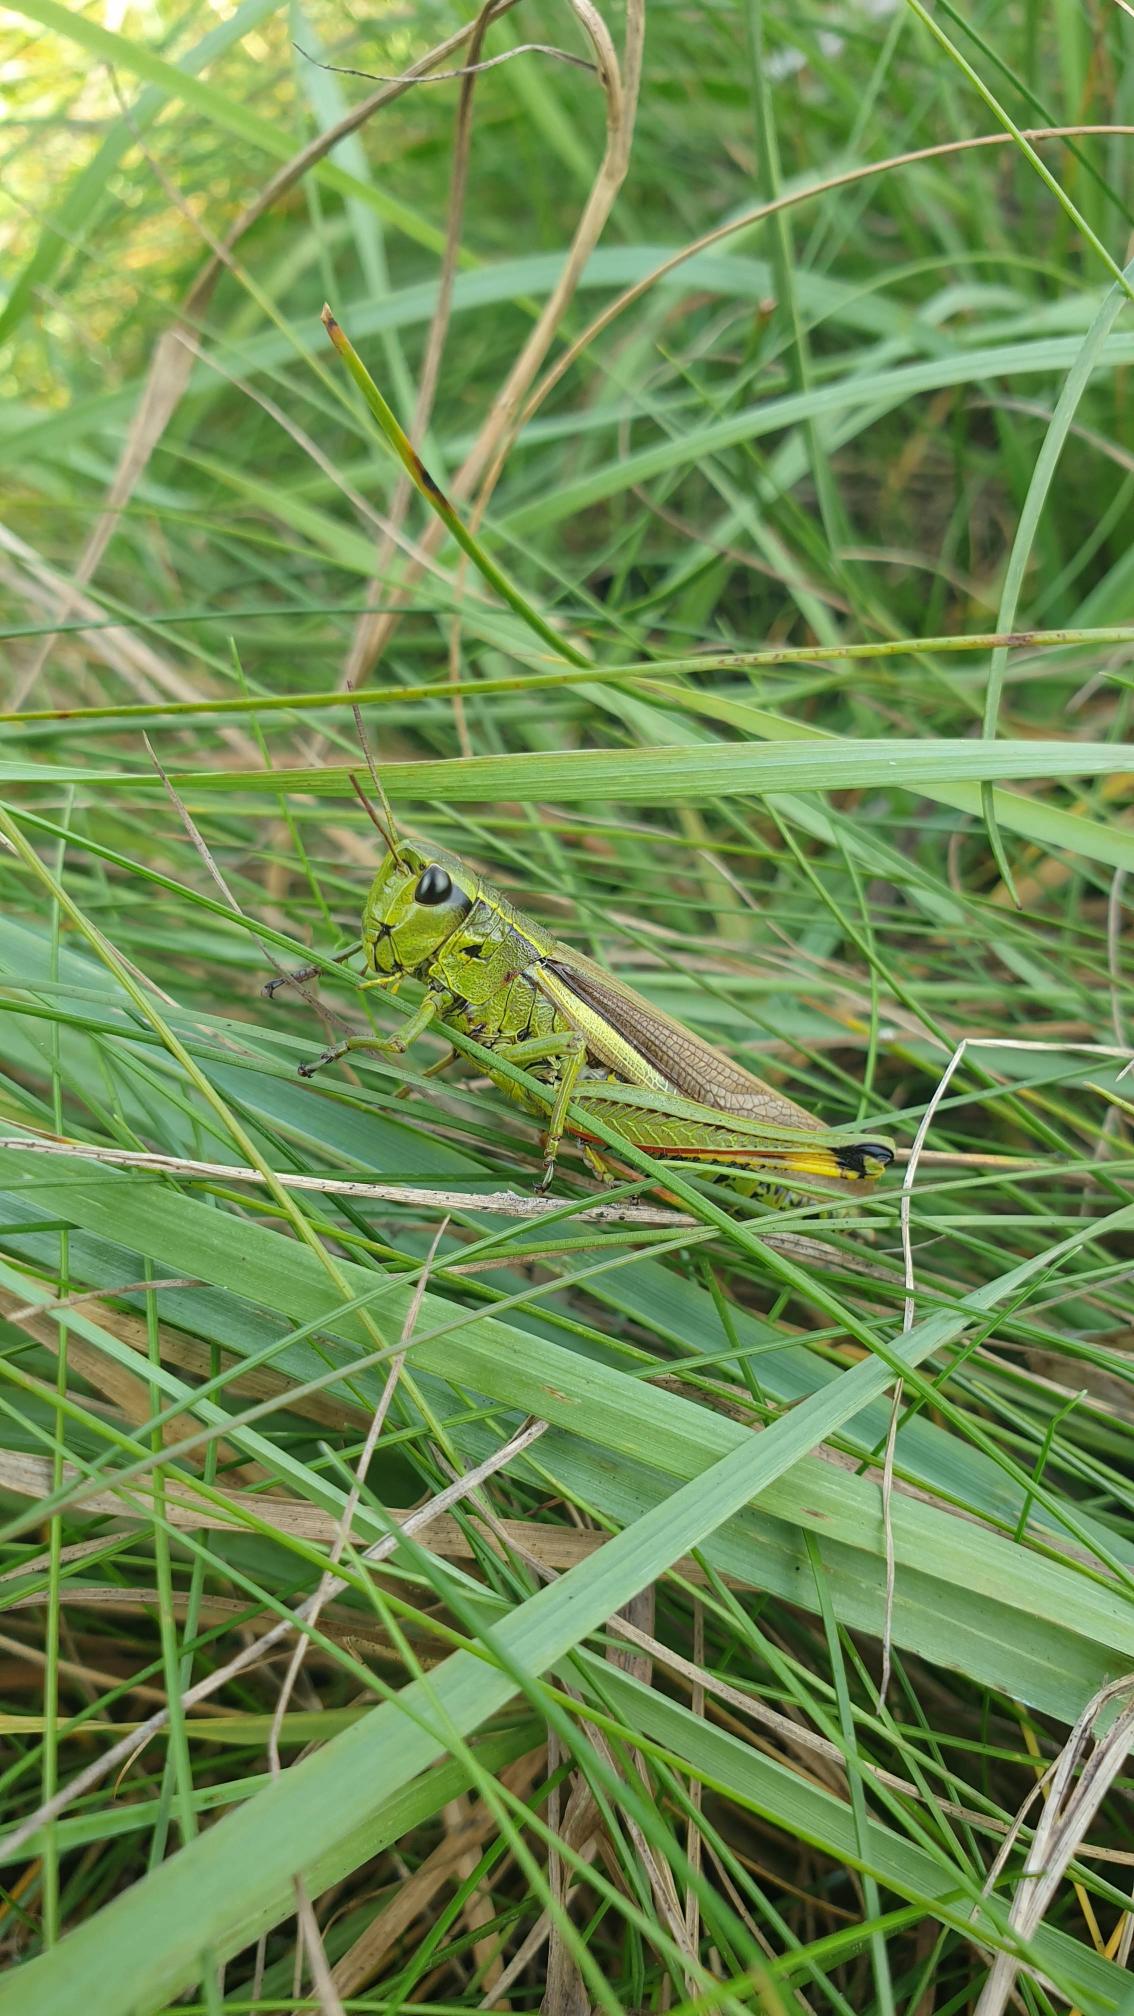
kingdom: Animalia
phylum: Arthropoda
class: Insecta
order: Orthoptera
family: Acrididae
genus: Stethophyma
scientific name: Stethophyma grossum
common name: Sumpgræshoppe
